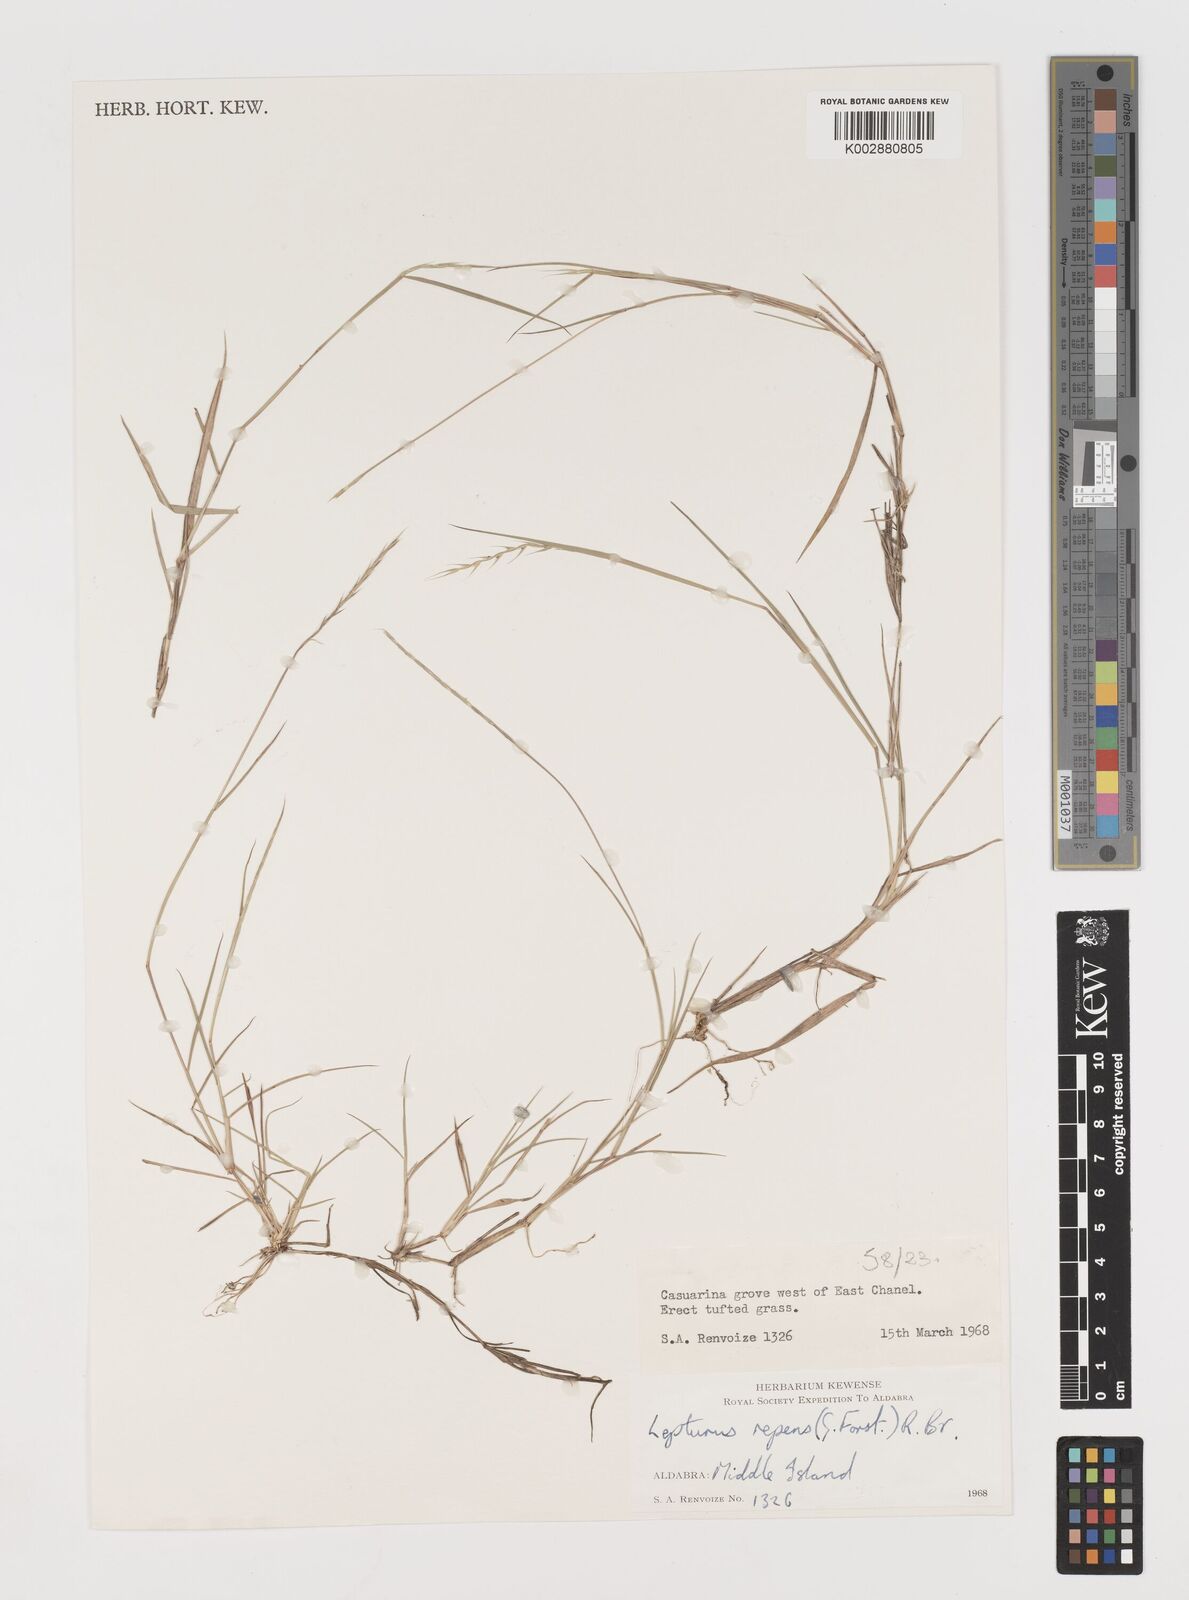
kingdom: Plantae
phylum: Tracheophyta
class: Liliopsida
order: Poales
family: Poaceae
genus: Lepturus
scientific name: Lepturus repens
